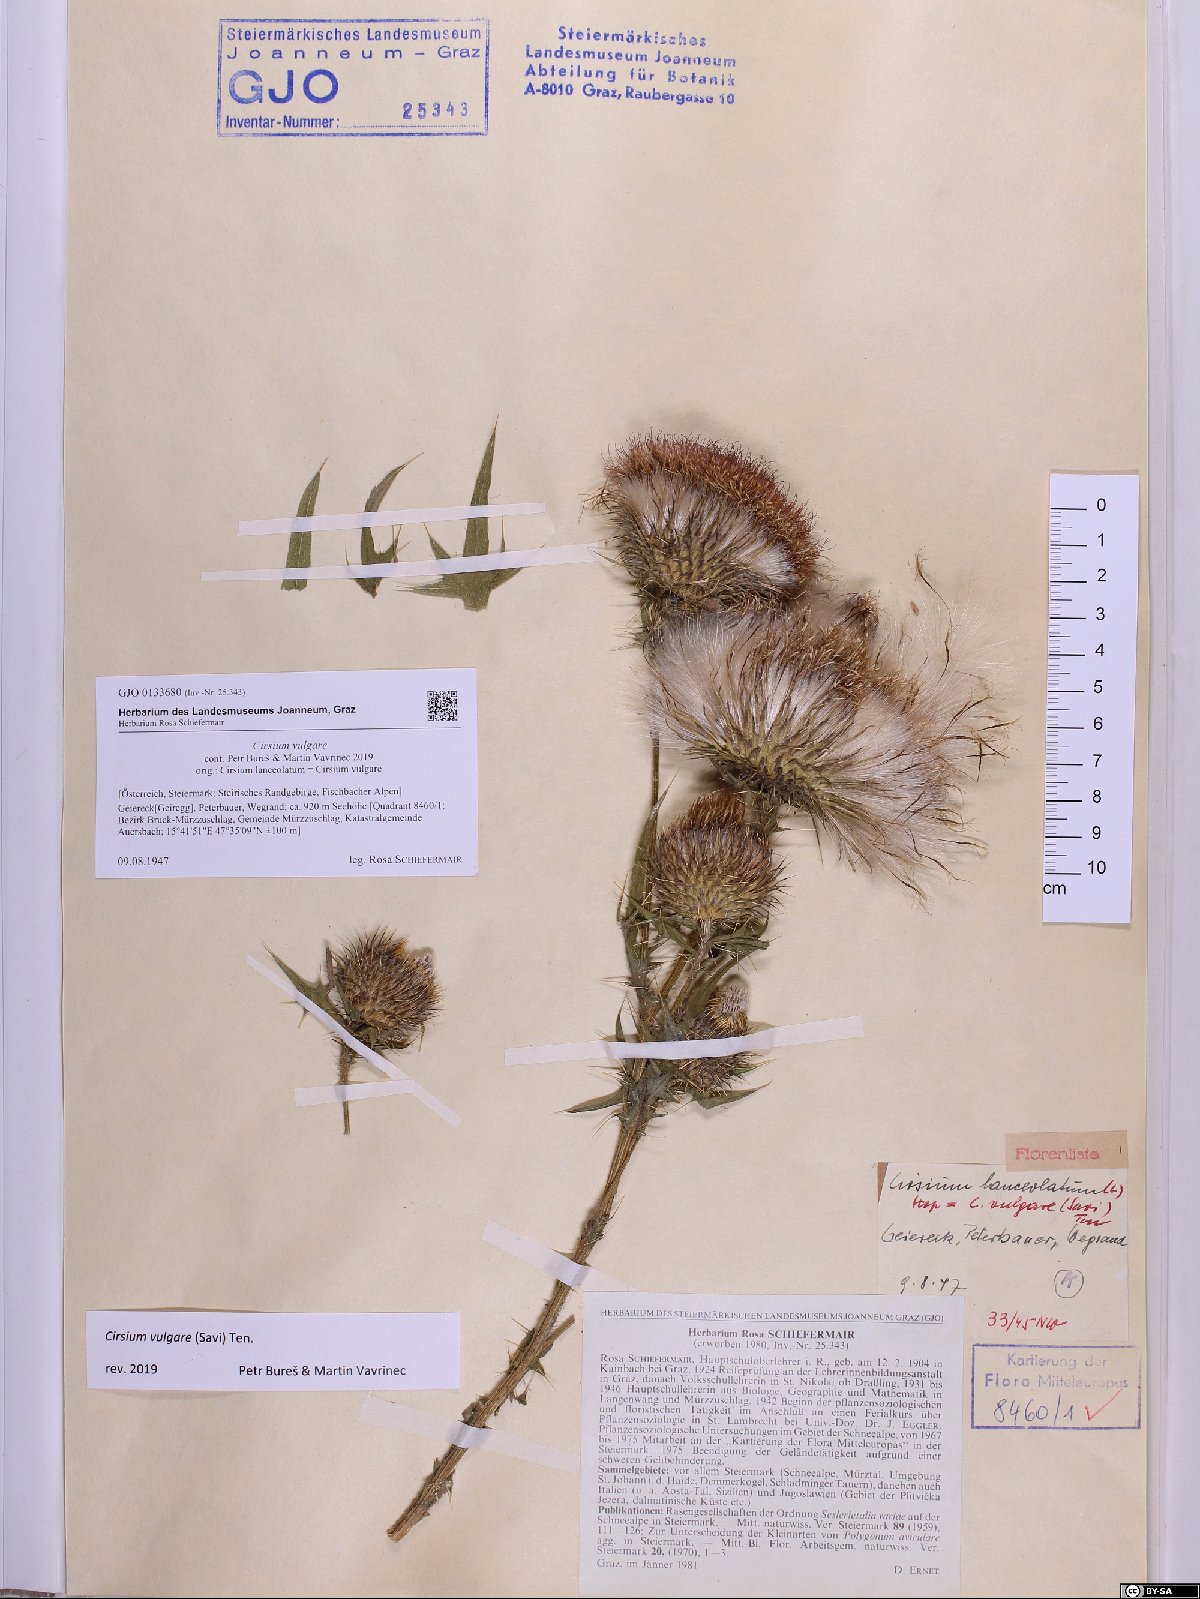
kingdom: Plantae
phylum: Tracheophyta
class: Magnoliopsida
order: Asterales
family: Asteraceae
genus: Cirsium
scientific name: Cirsium vulgare
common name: Bull thistle
